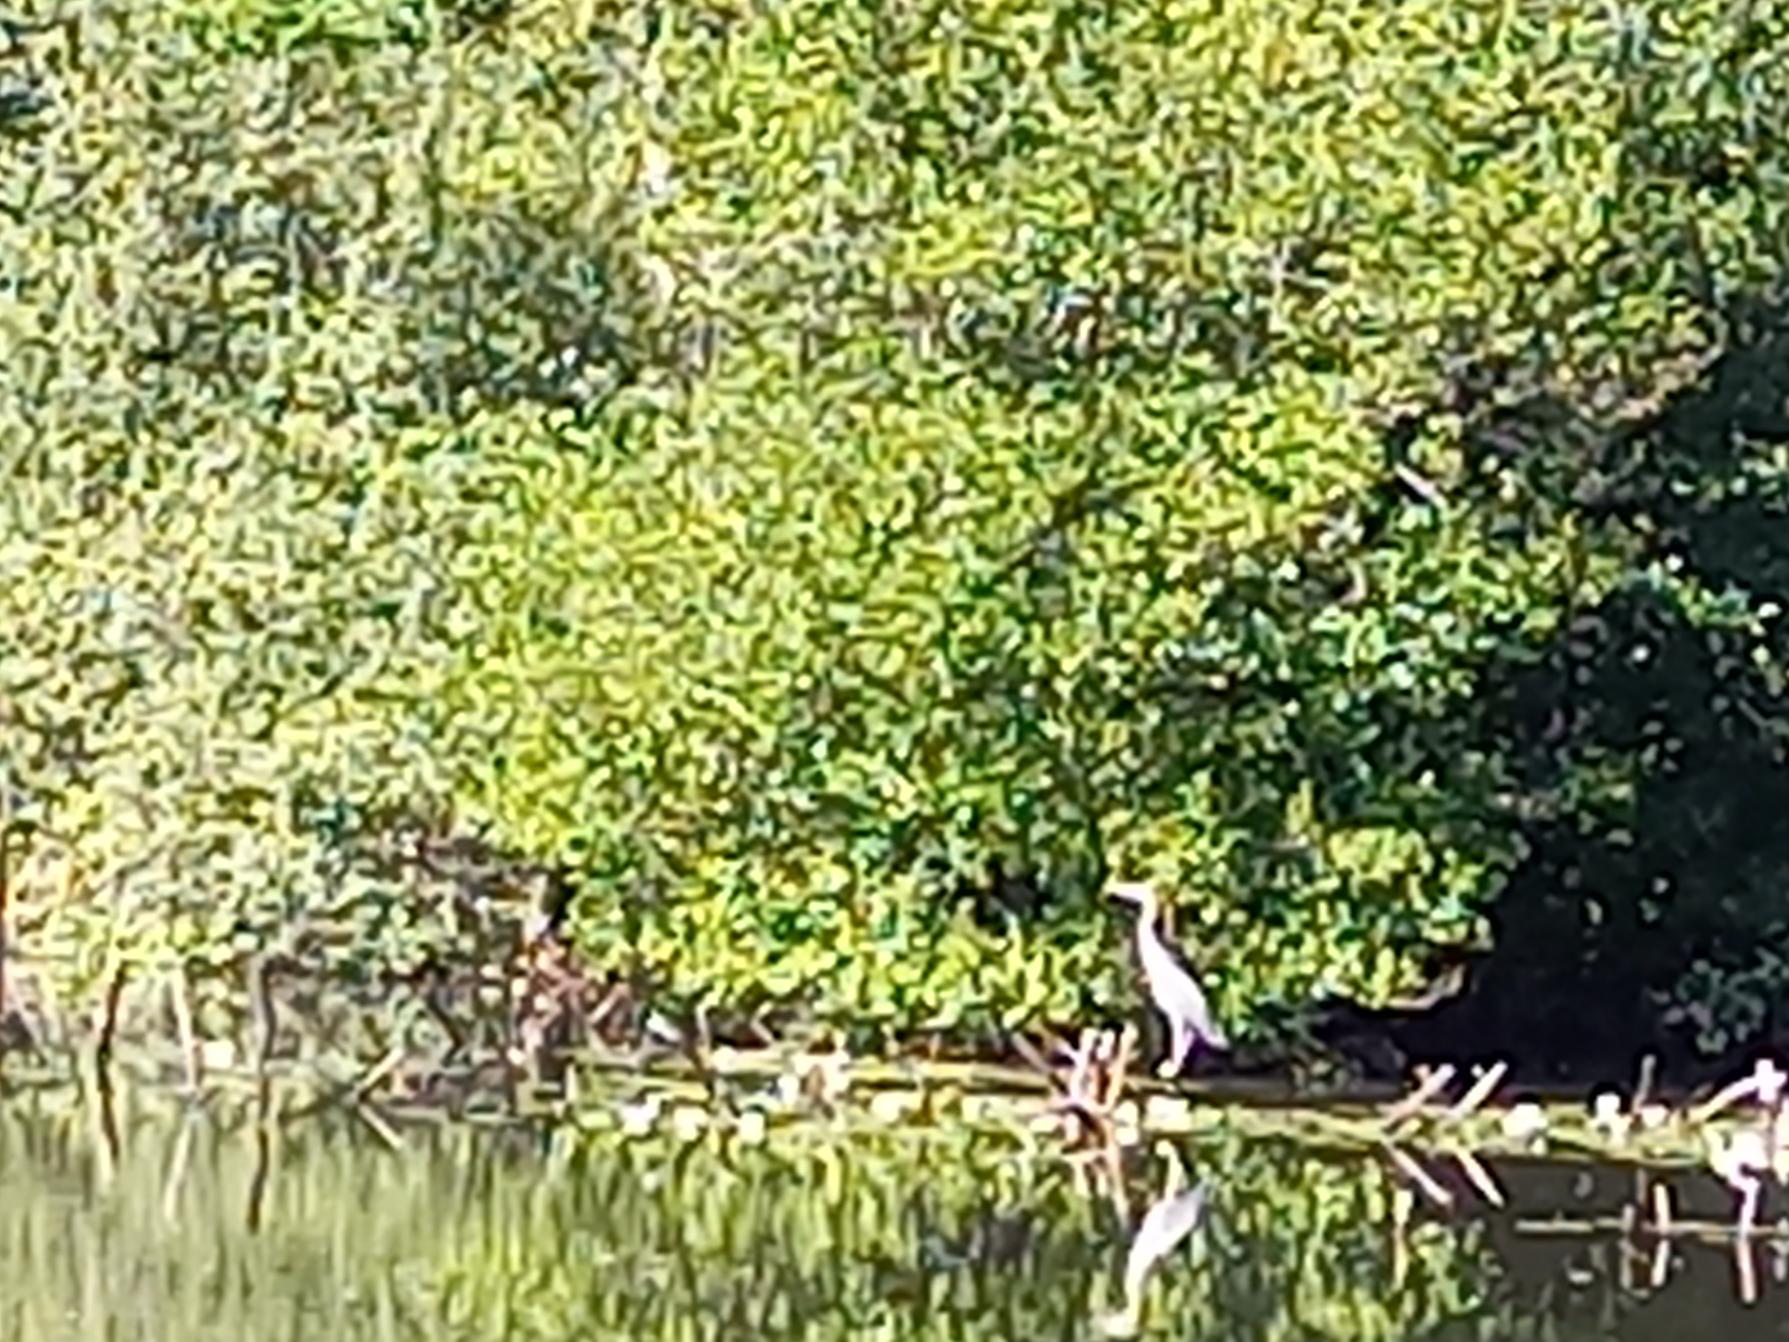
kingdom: Animalia
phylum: Chordata
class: Aves
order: Pelecaniformes
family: Ardeidae
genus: Ardea
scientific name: Ardea cinerea
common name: Fiskehejre
